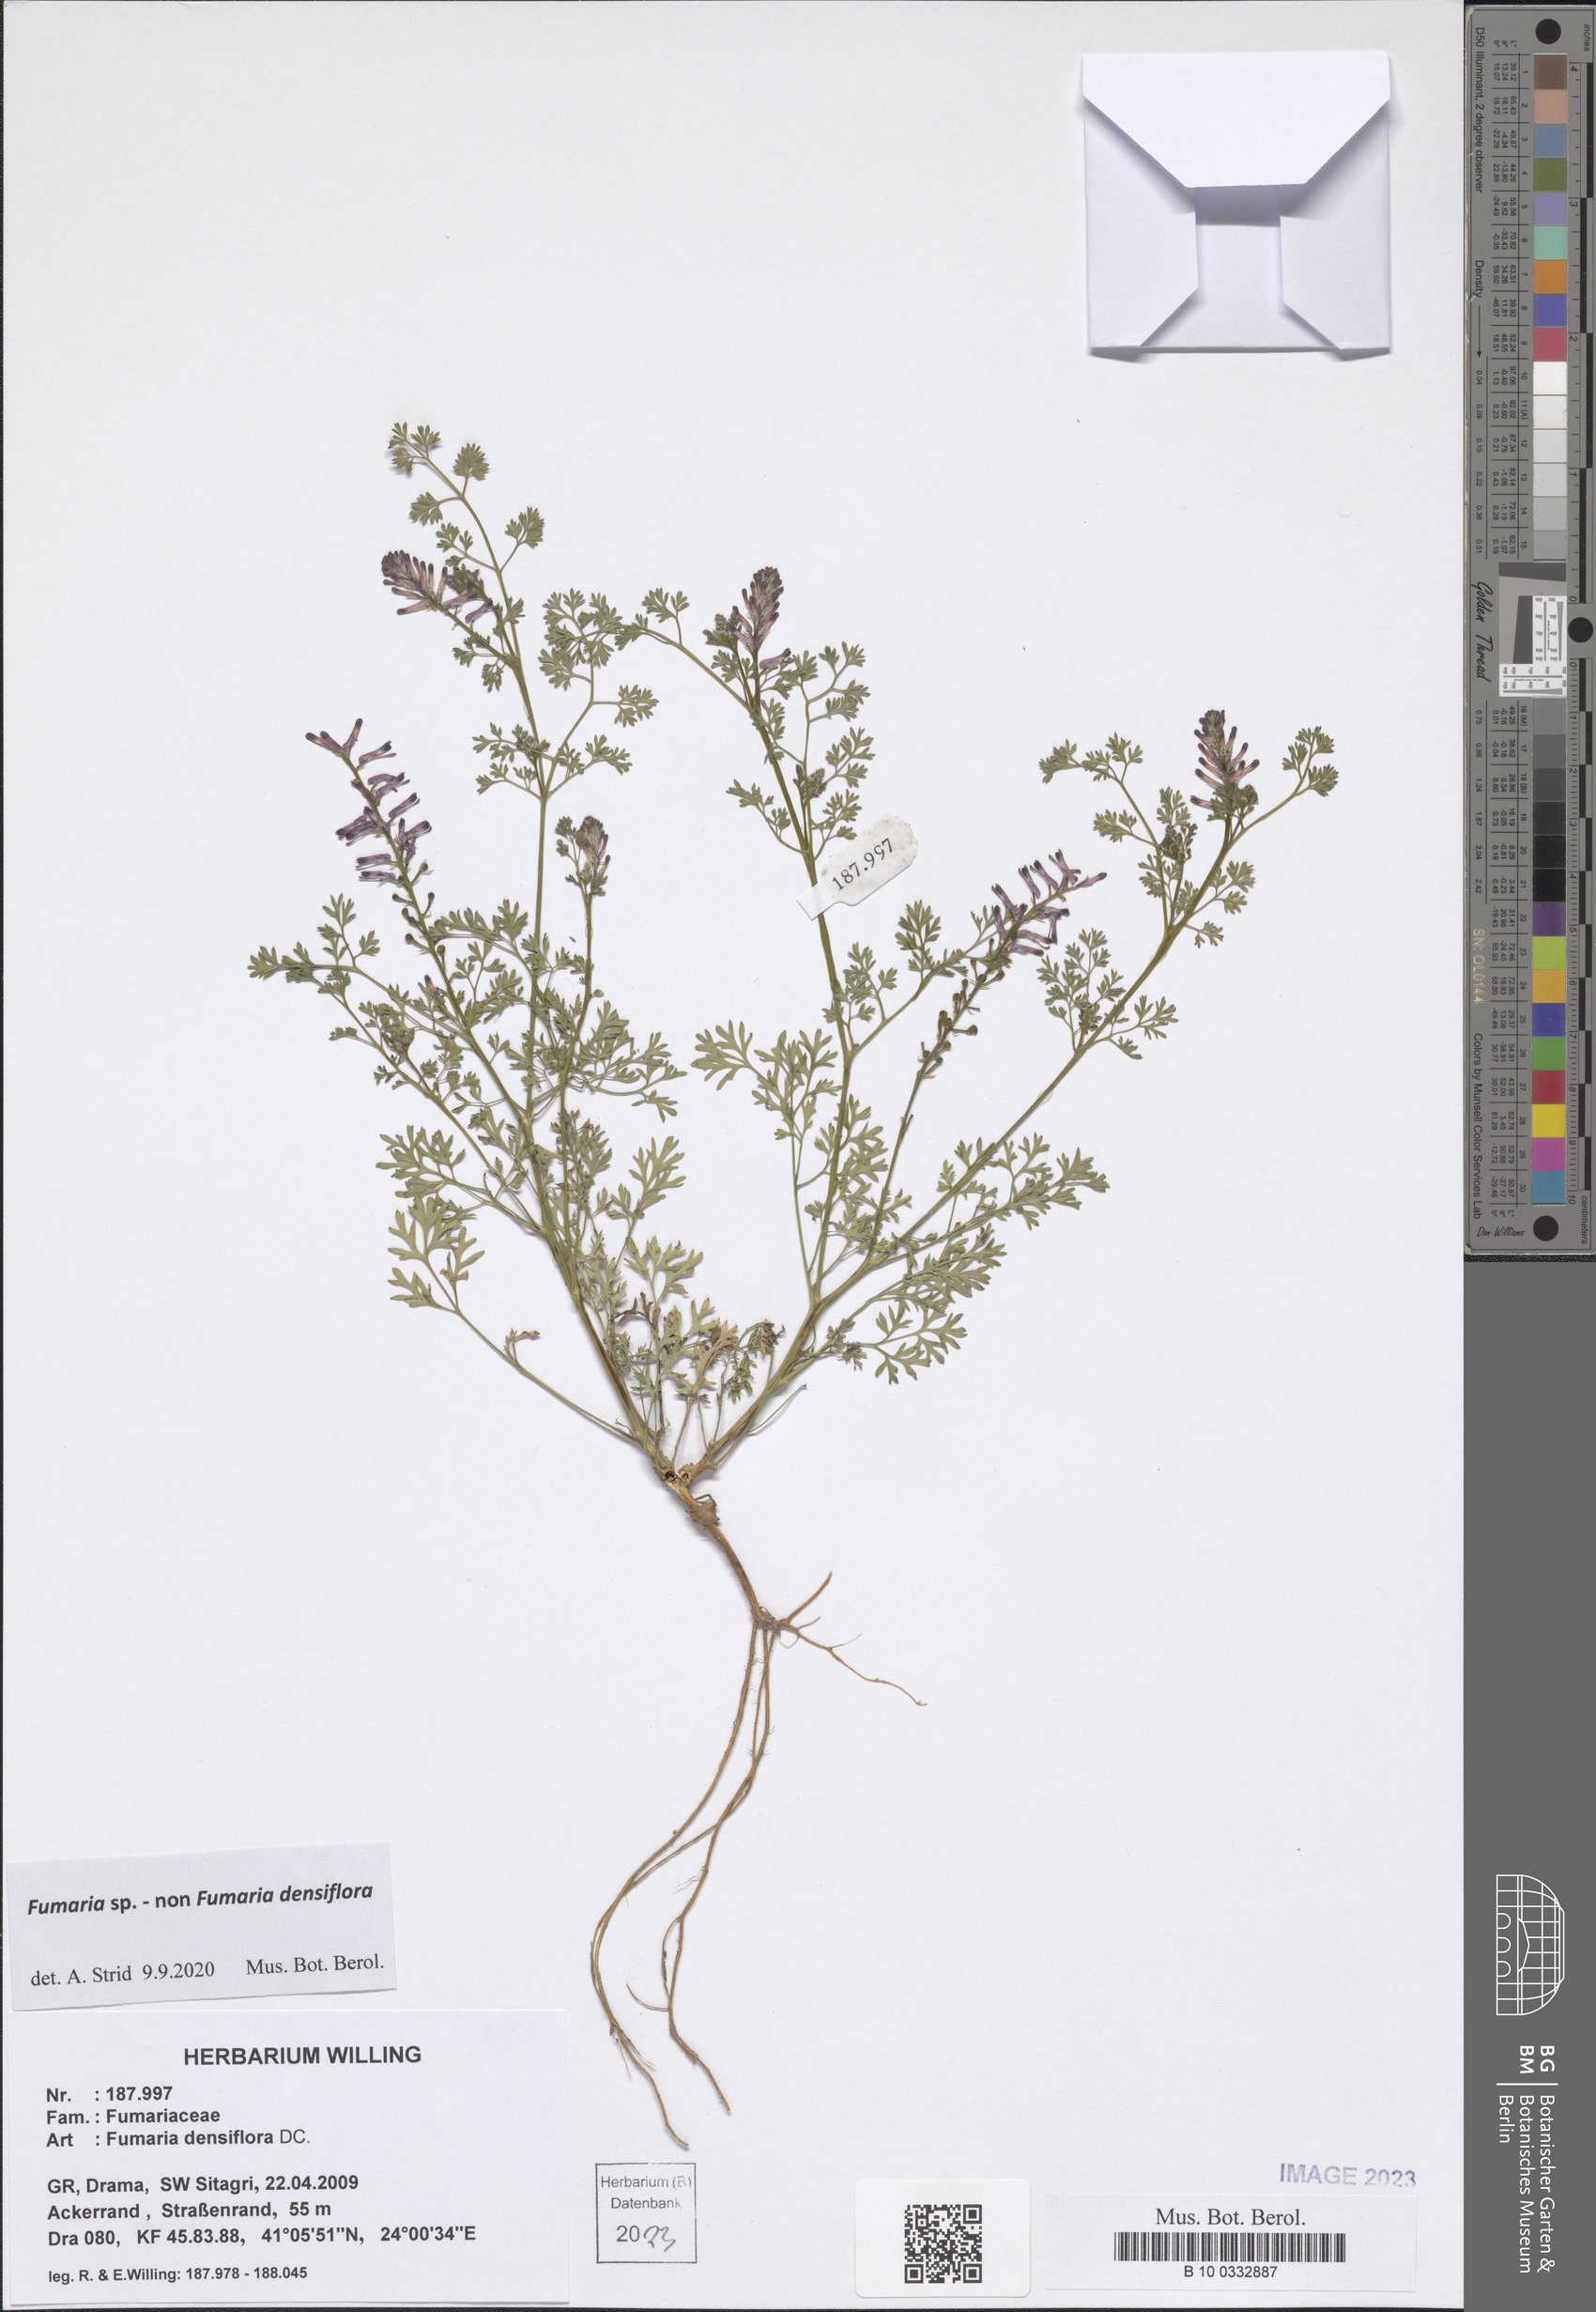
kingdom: Plantae
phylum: Tracheophyta
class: Magnoliopsida
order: Ranunculales
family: Papaveraceae
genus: Fumaria
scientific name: Fumaria
